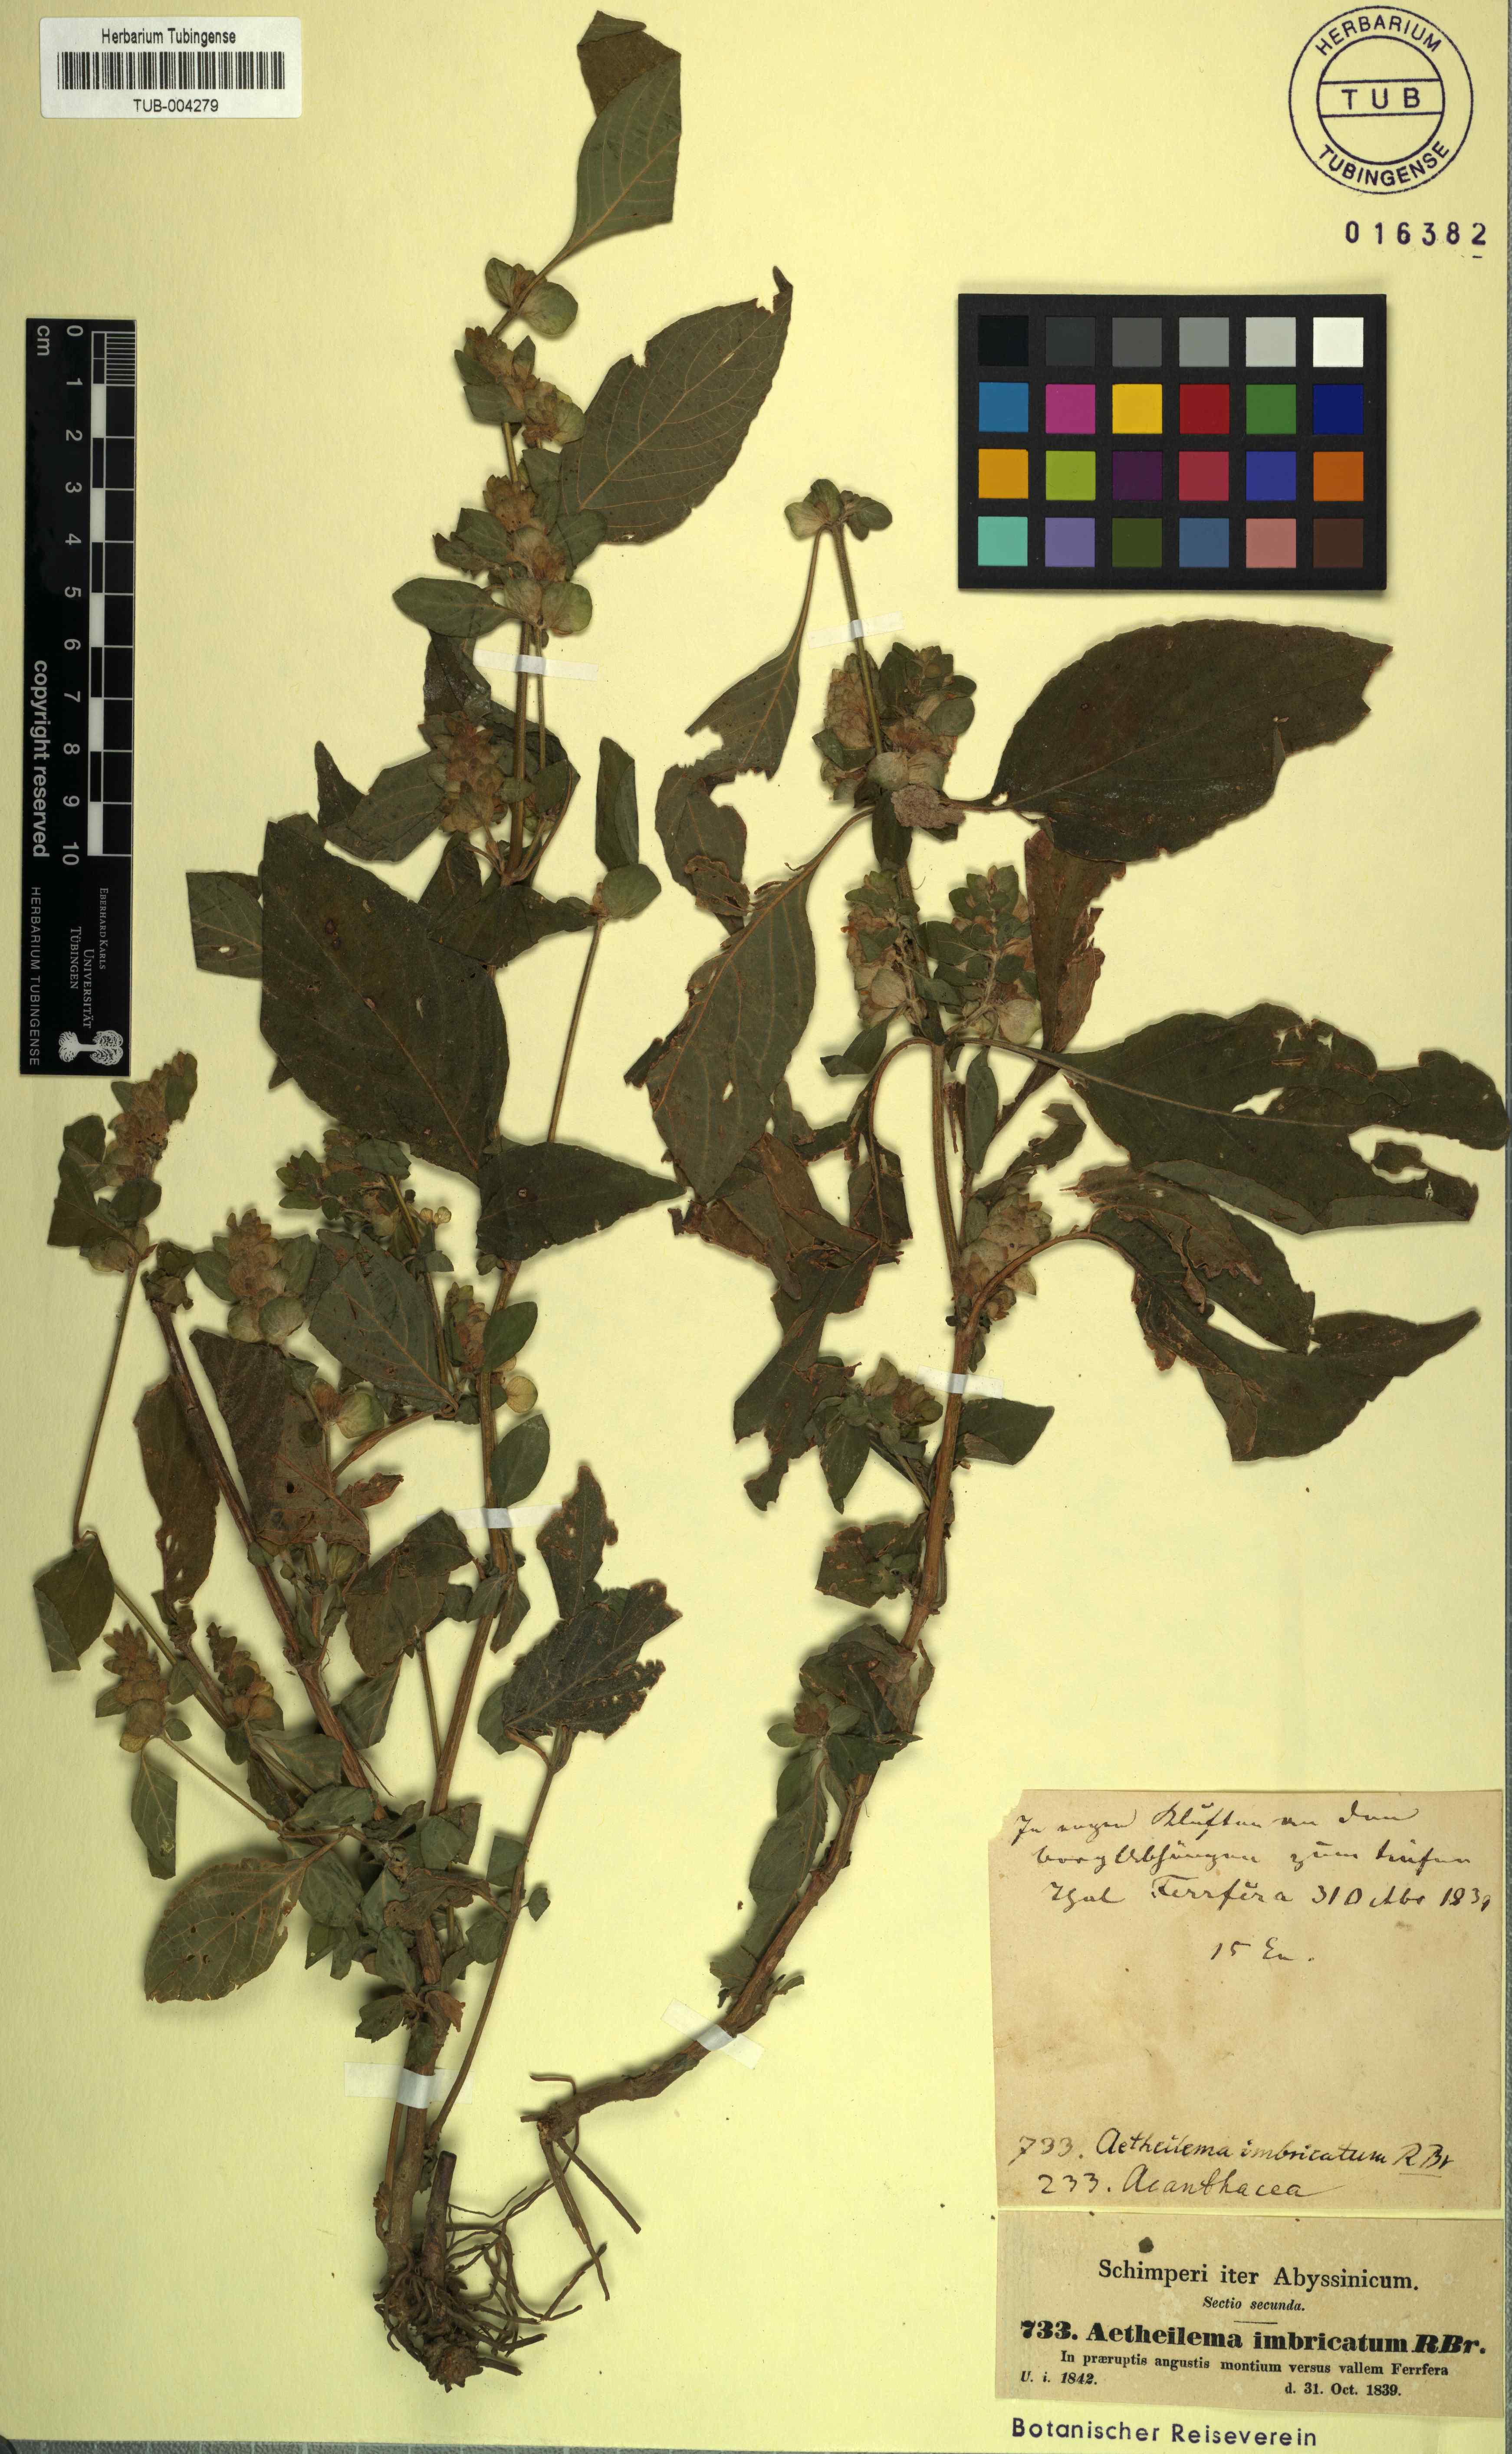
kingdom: Plantae
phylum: Tracheophyta
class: Magnoliopsida
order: Lamiales
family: Acanthaceae
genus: Phaulopsis
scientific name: Phaulopsis barteri
